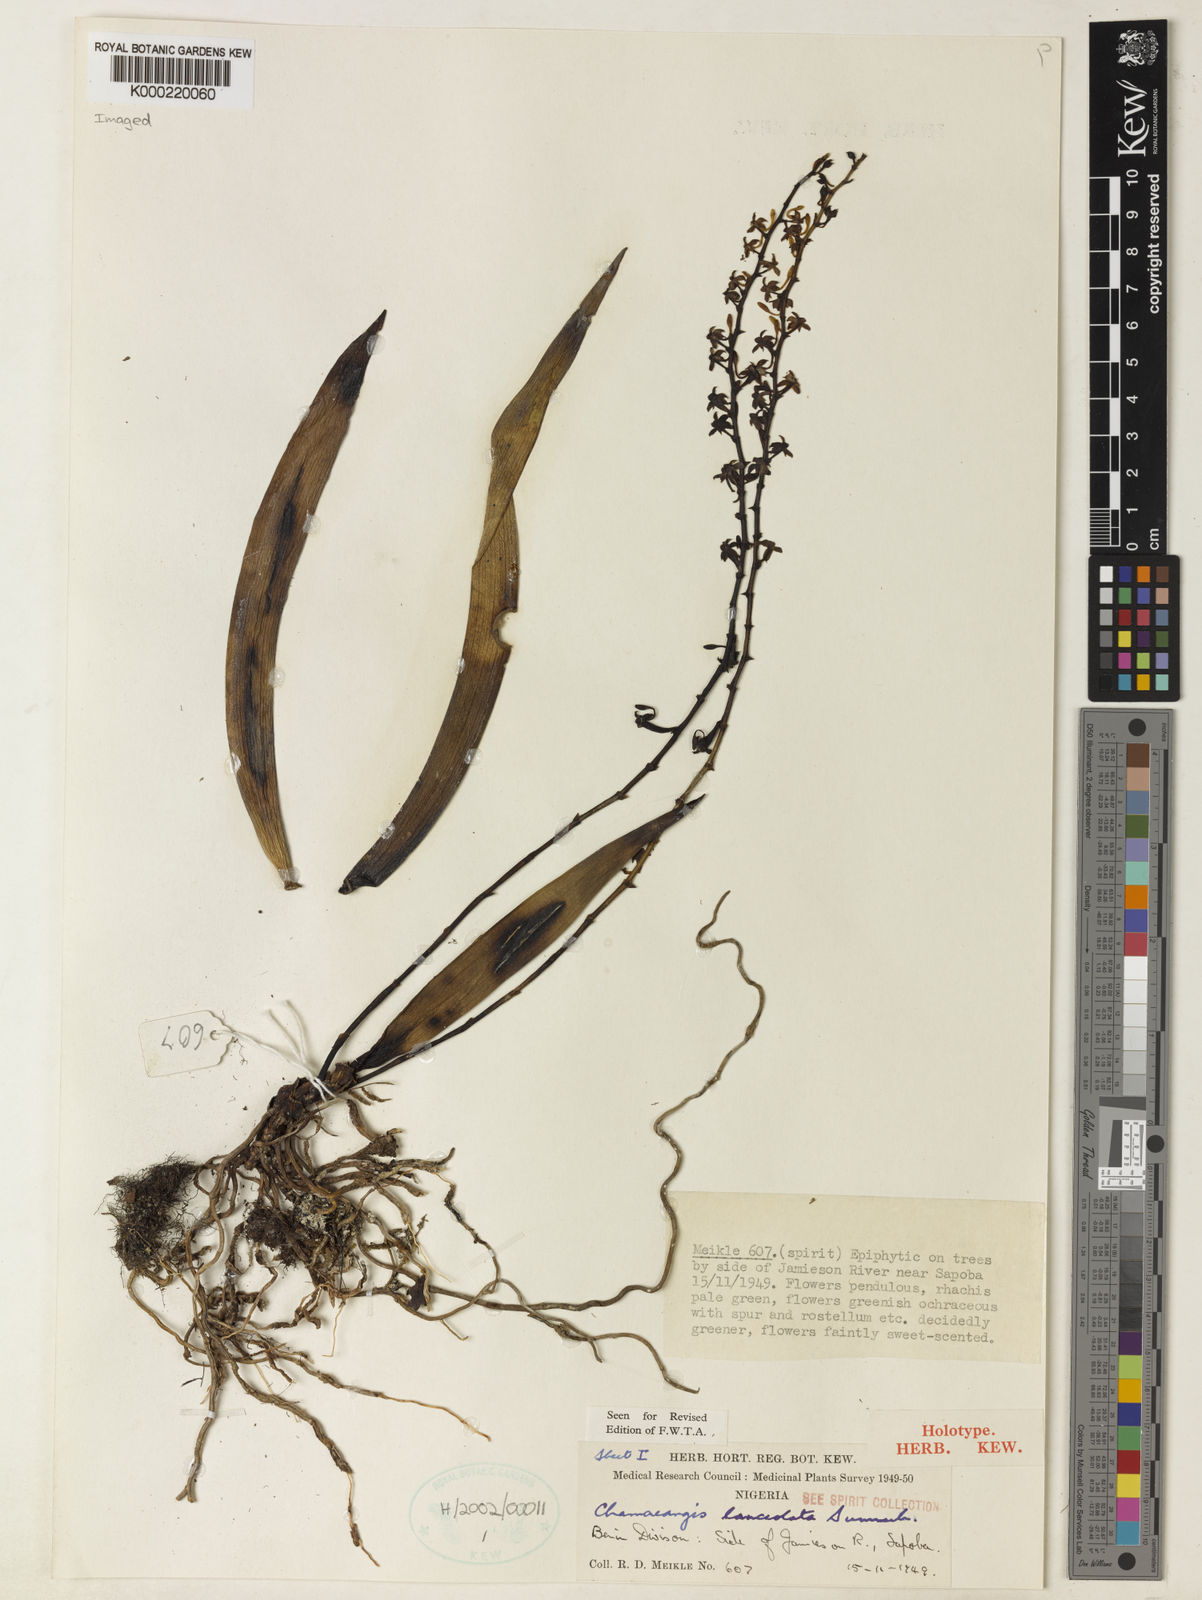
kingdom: Plantae
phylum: Tracheophyta
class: Liliopsida
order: Asparagales
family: Orchidaceae
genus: Diaphananthe
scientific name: Diaphananthe lanceolata
